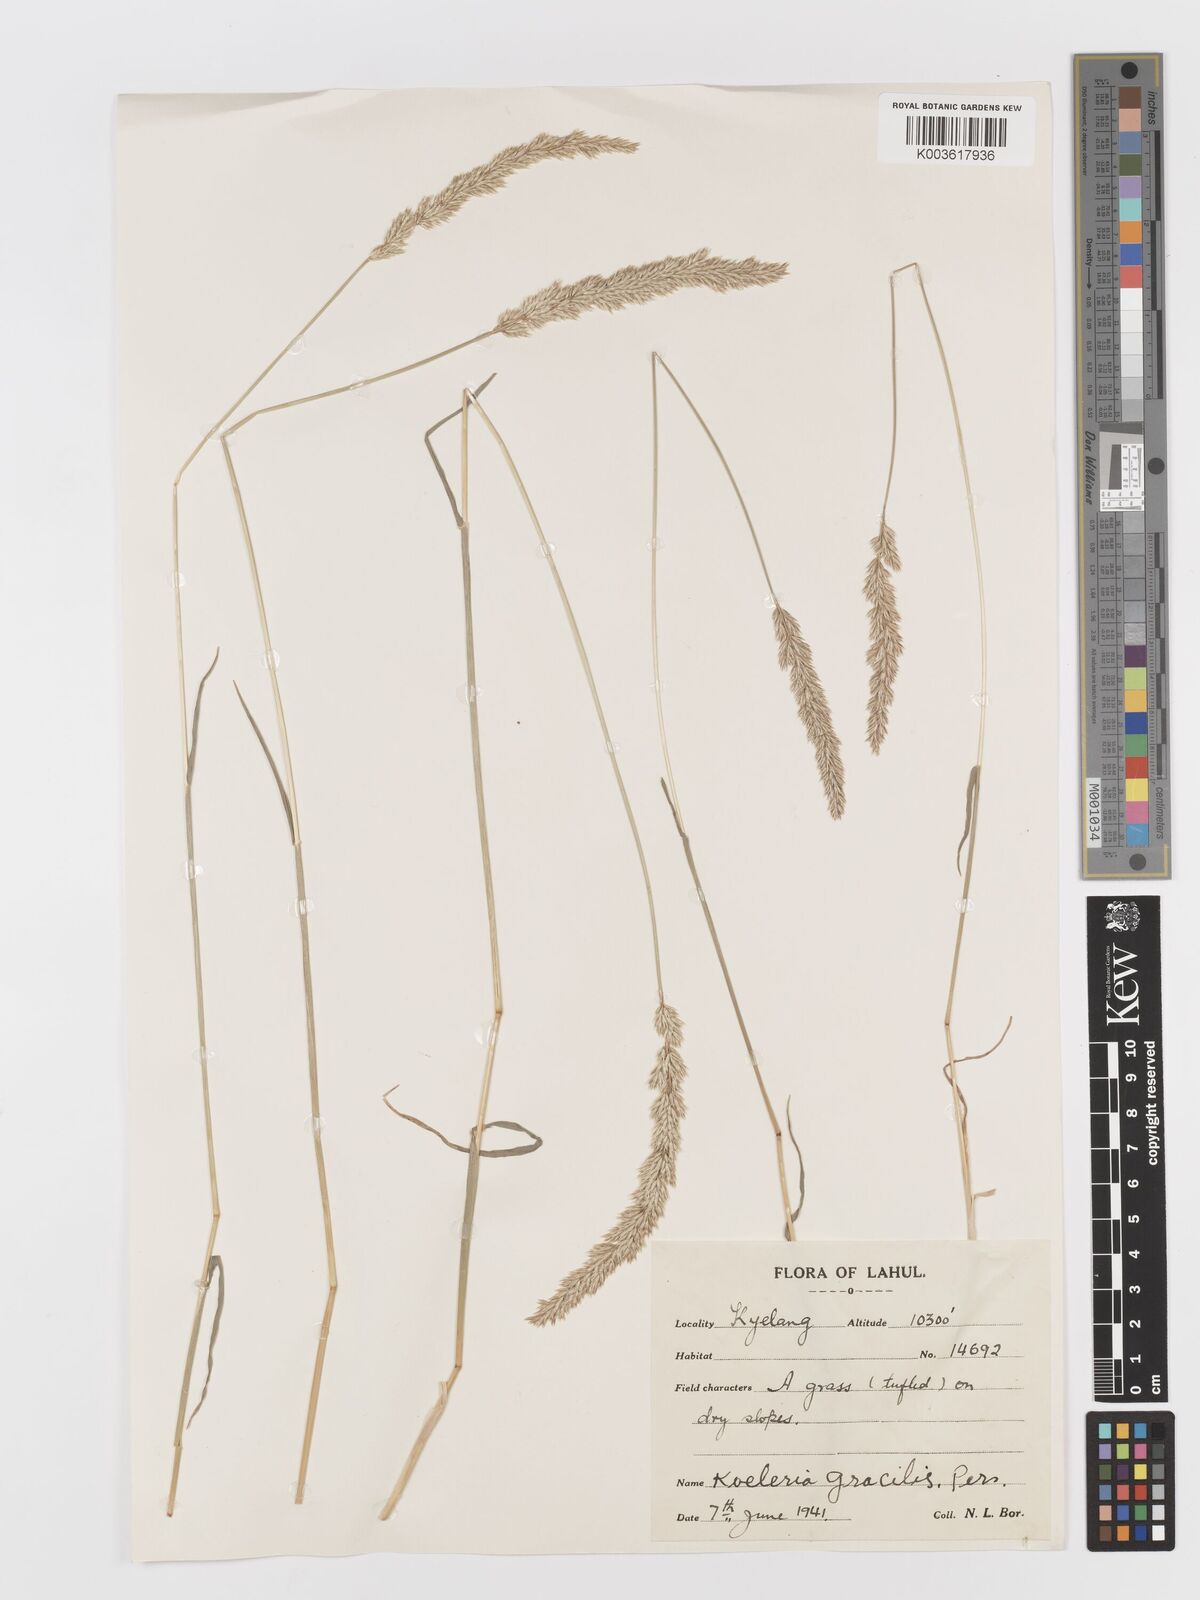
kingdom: Plantae
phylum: Tracheophyta
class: Liliopsida
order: Poales
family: Poaceae
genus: Koeleria
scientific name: Koeleria
